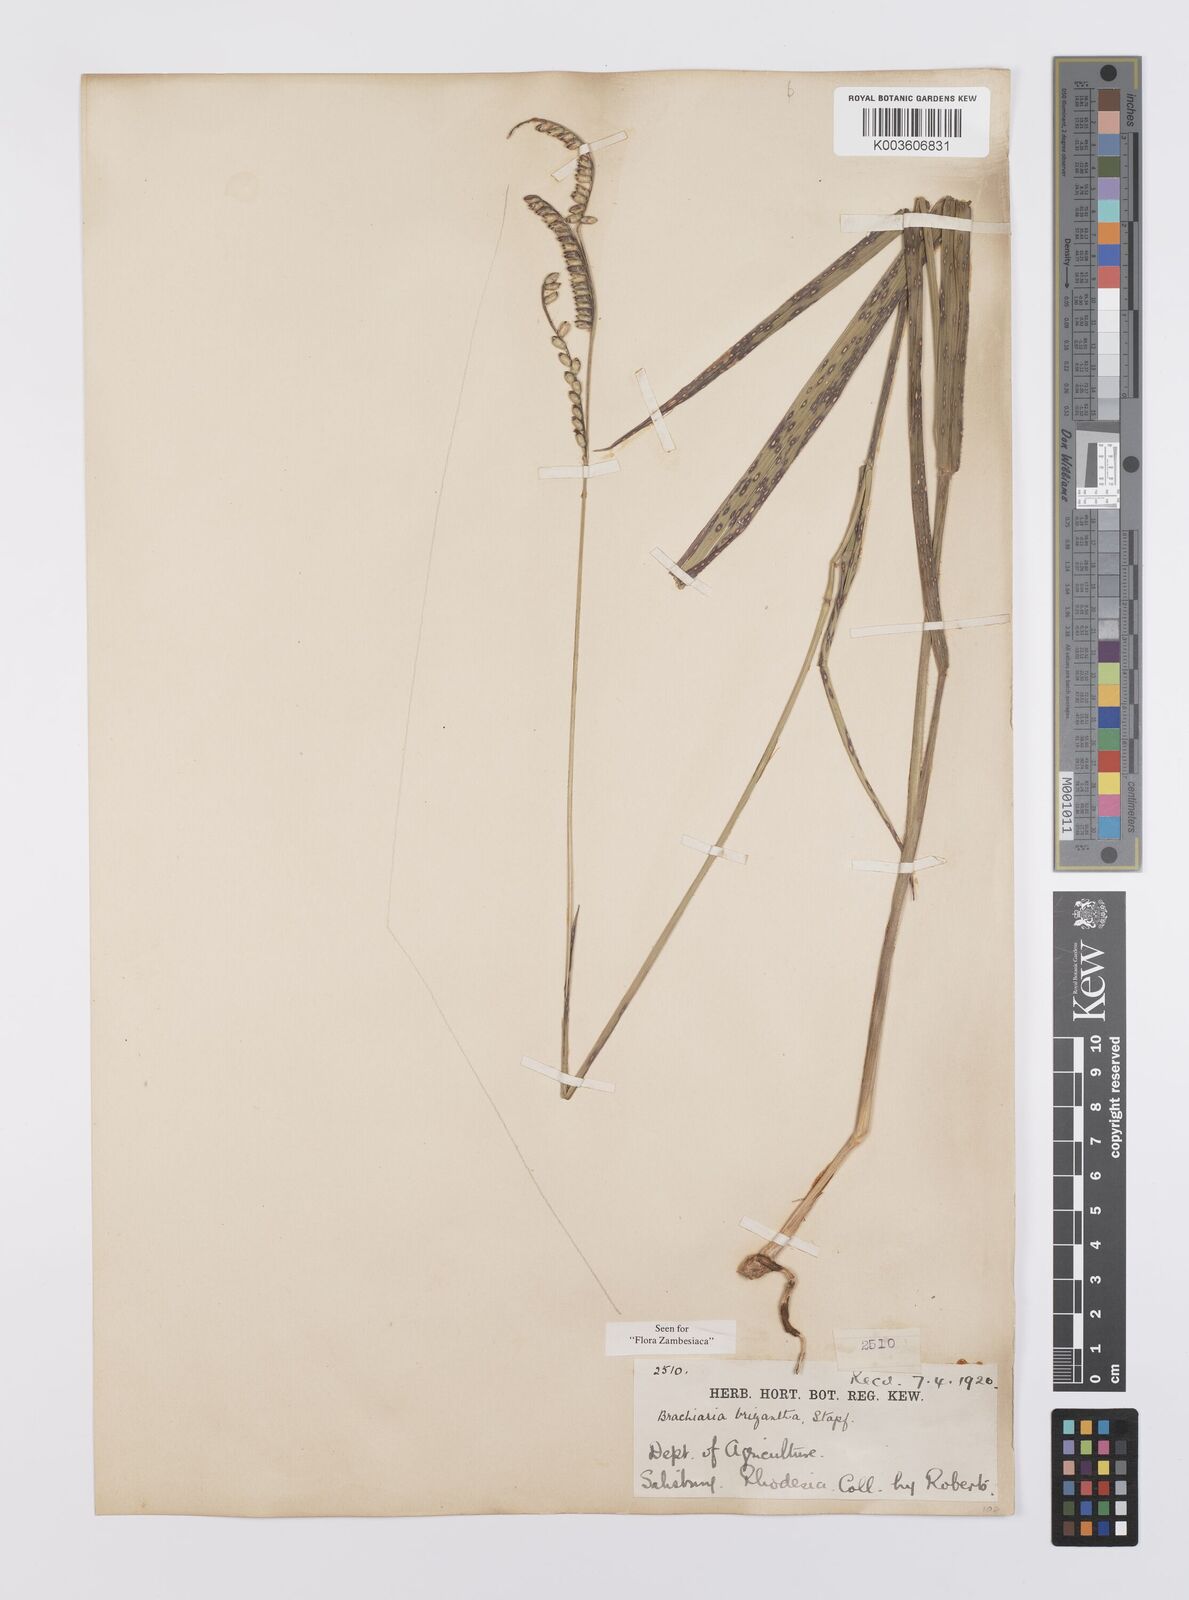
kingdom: Plantae
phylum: Tracheophyta
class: Liliopsida
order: Poales
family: Poaceae
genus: Urochloa
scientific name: Urochloa brizantha
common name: Palisade signalgrass
